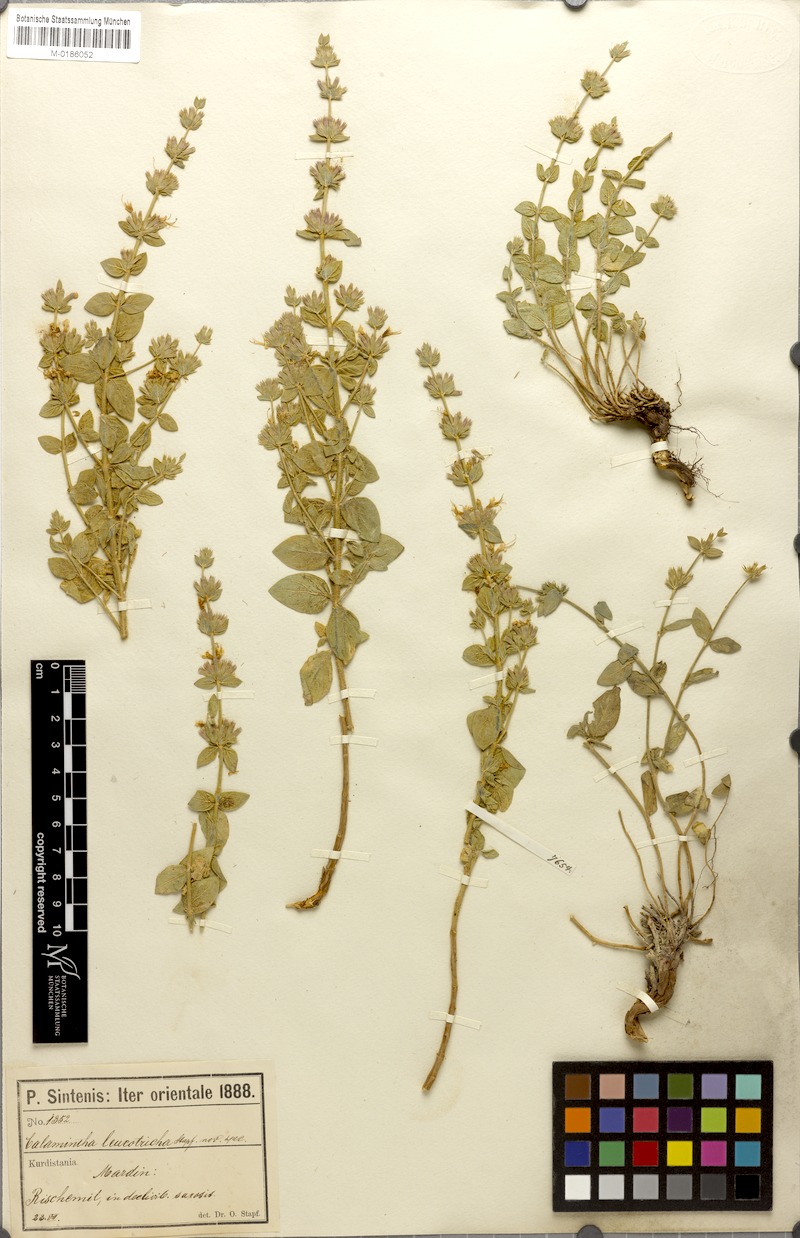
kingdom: Plantae
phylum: Tracheophyta
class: Magnoliopsida
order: Lamiales
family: Lamiaceae
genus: Cyclotrichium
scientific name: Cyclotrichium leucotrichum
